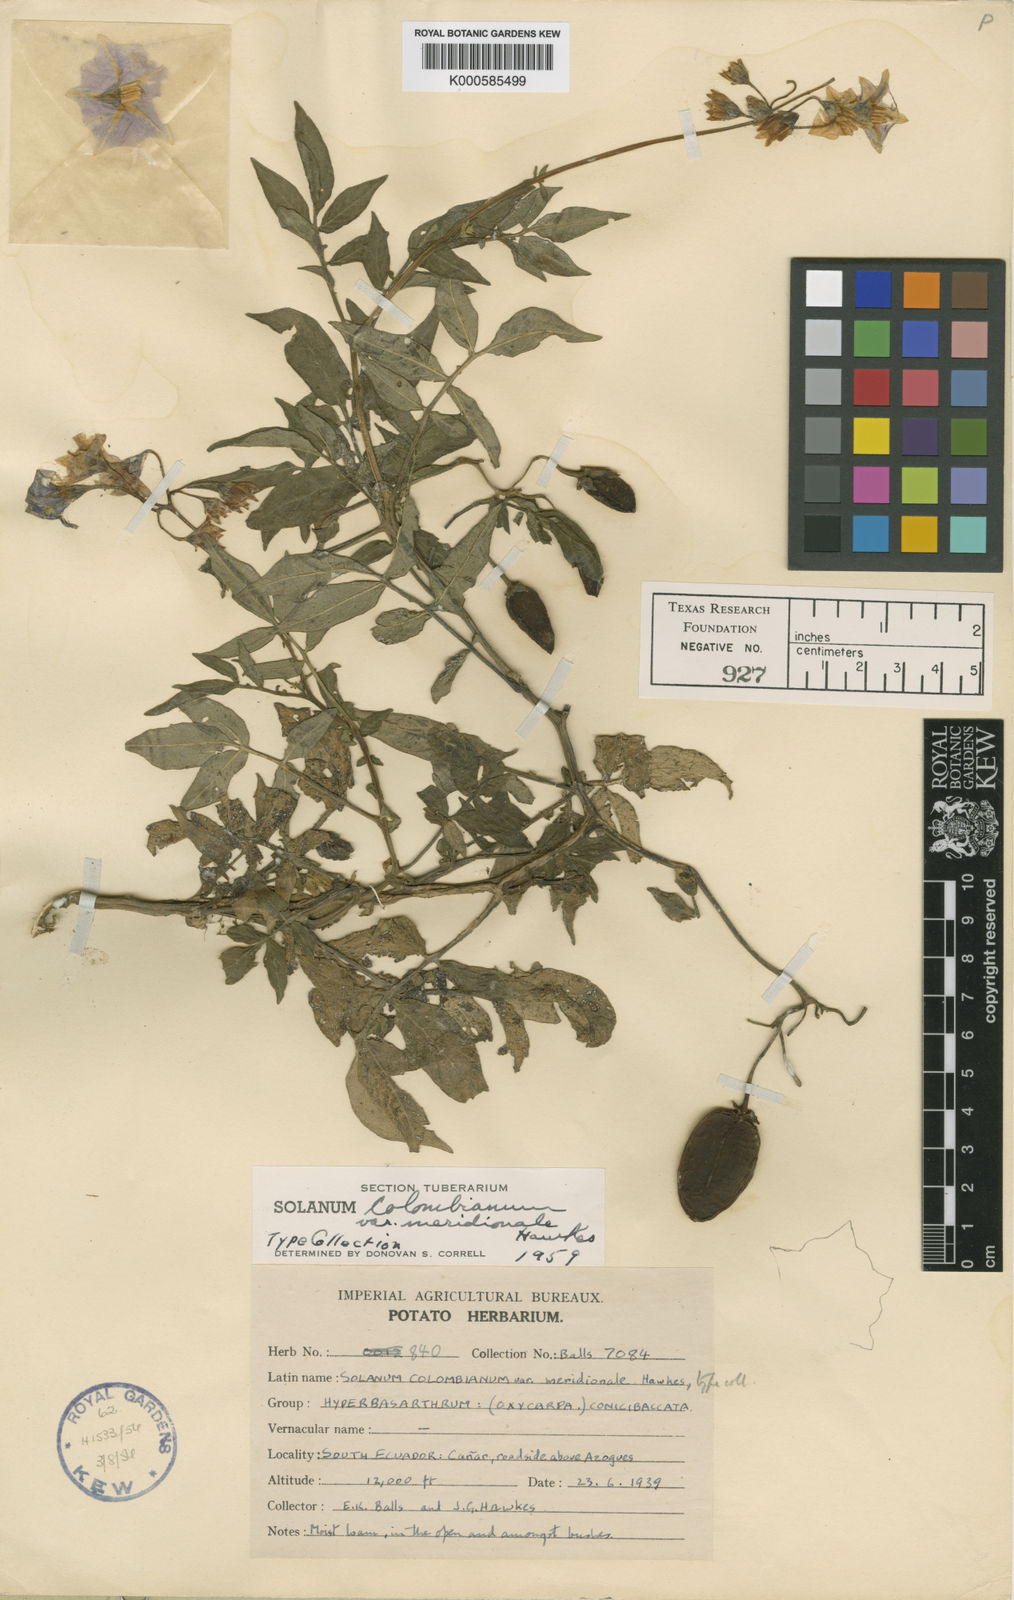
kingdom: Plantae
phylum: Tracheophyta
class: Magnoliopsida
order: Solanales
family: Solanaceae
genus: Solanum
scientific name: Solanum colombianum
